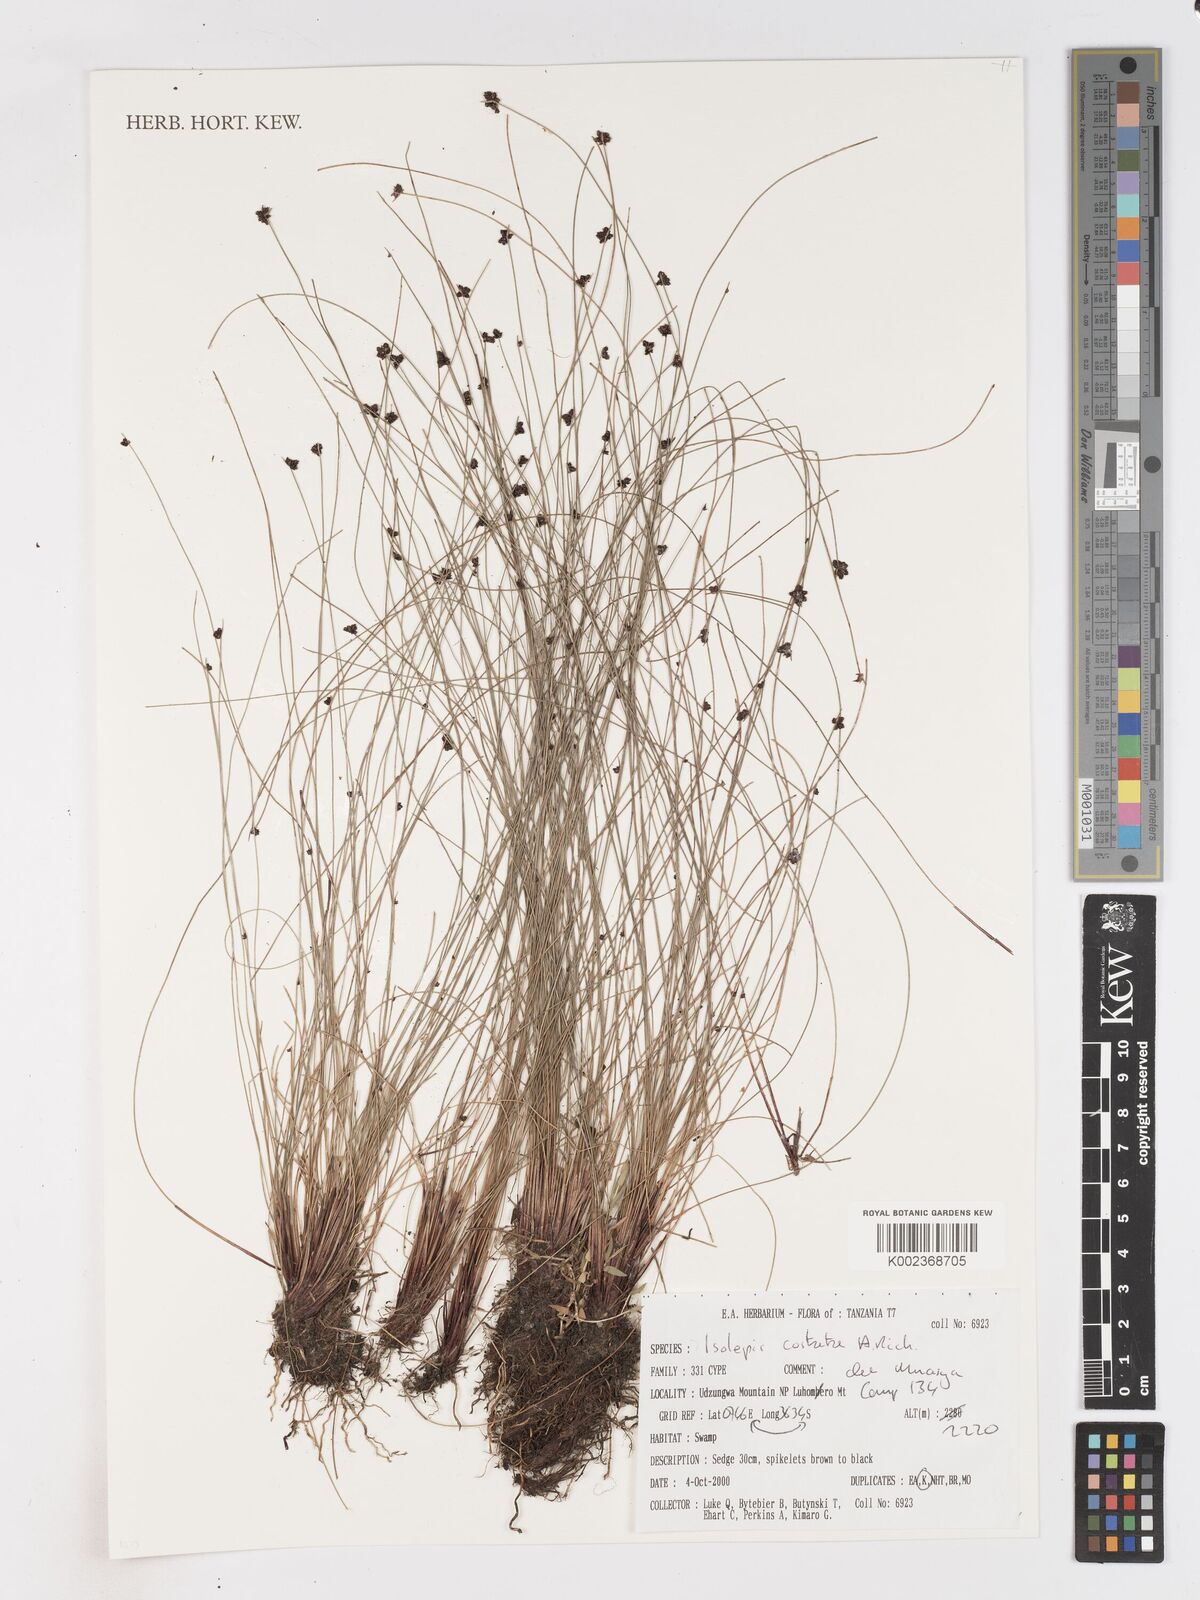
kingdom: Plantae
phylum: Tracheophyta
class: Liliopsida
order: Poales
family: Cyperaceae
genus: Isolepis
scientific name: Isolepis costata
